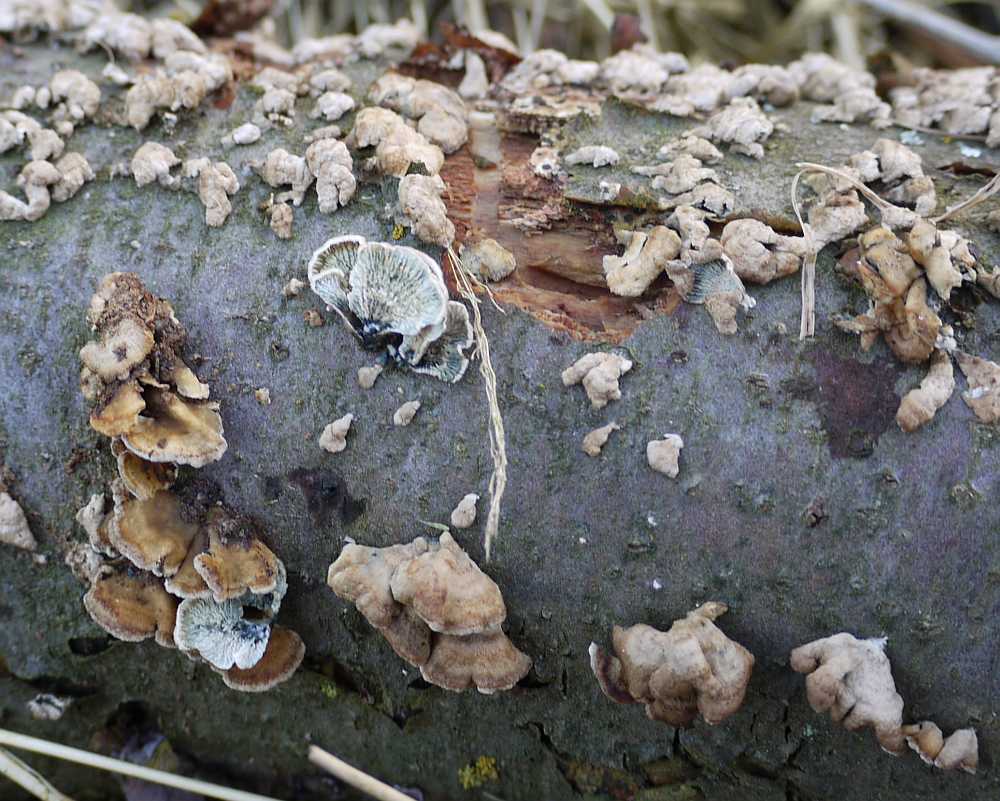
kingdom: Fungi
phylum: Basidiomycota
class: Agaricomycetes
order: Amylocorticiales
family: Amylocorticiaceae
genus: Plicaturopsis
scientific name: Plicaturopsis crispa
